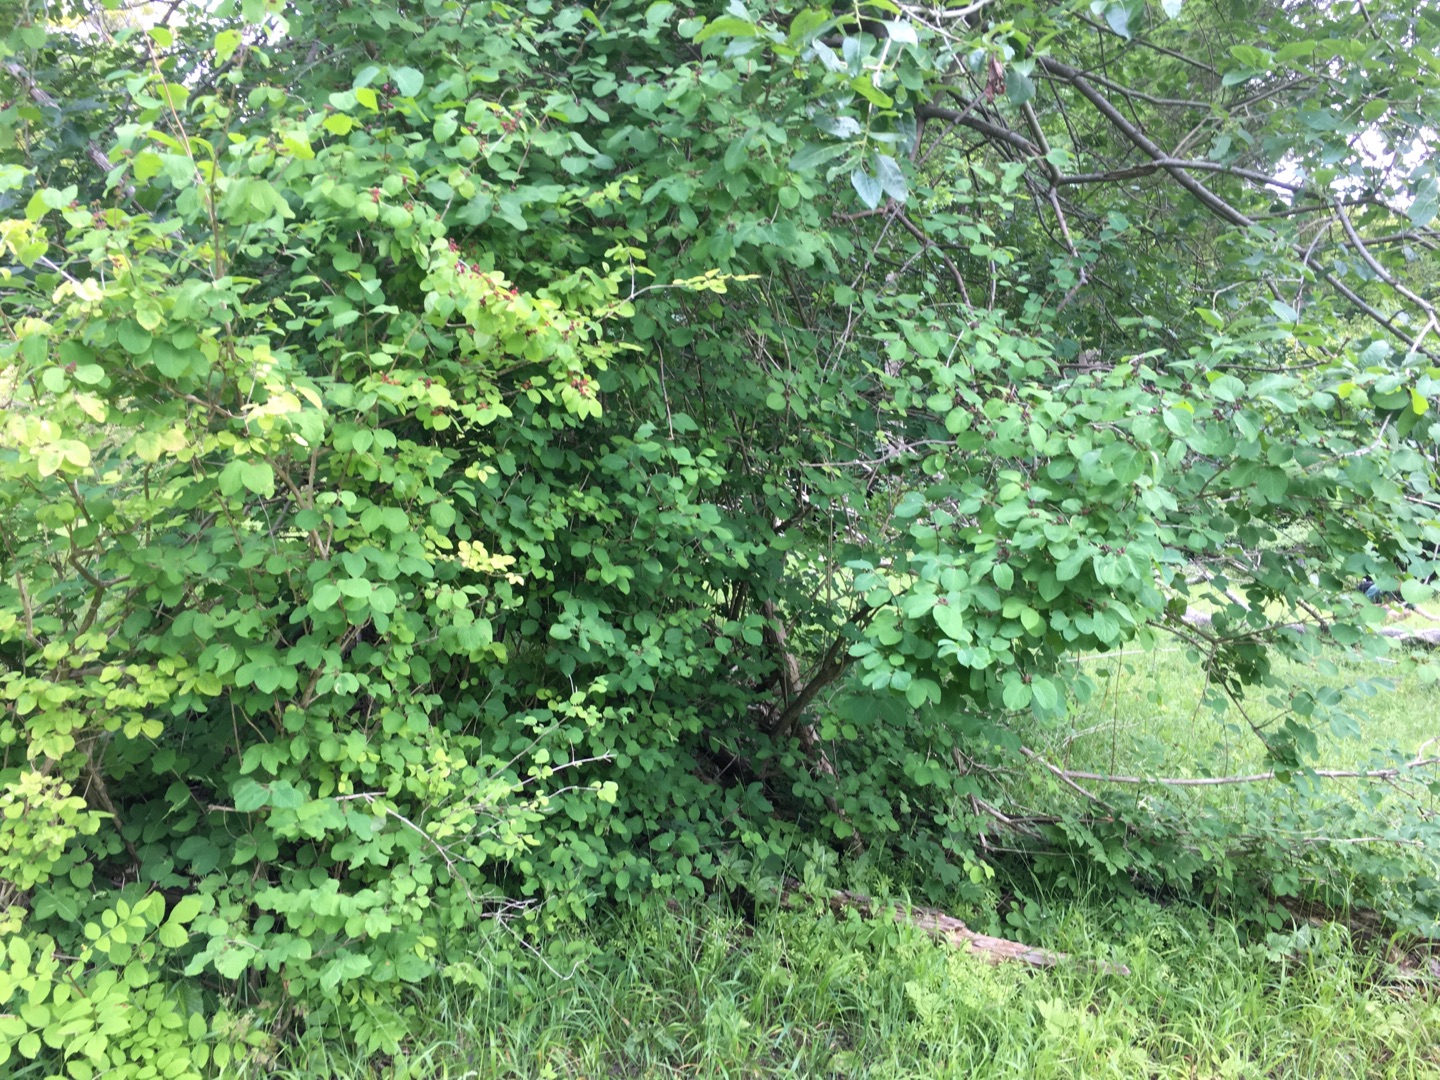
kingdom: Plantae
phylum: Tracheophyta
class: Magnoliopsida
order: Dipsacales
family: Caprifoliaceae
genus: Lonicera
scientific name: Lonicera xylosteum
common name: Dunet gedeblad
